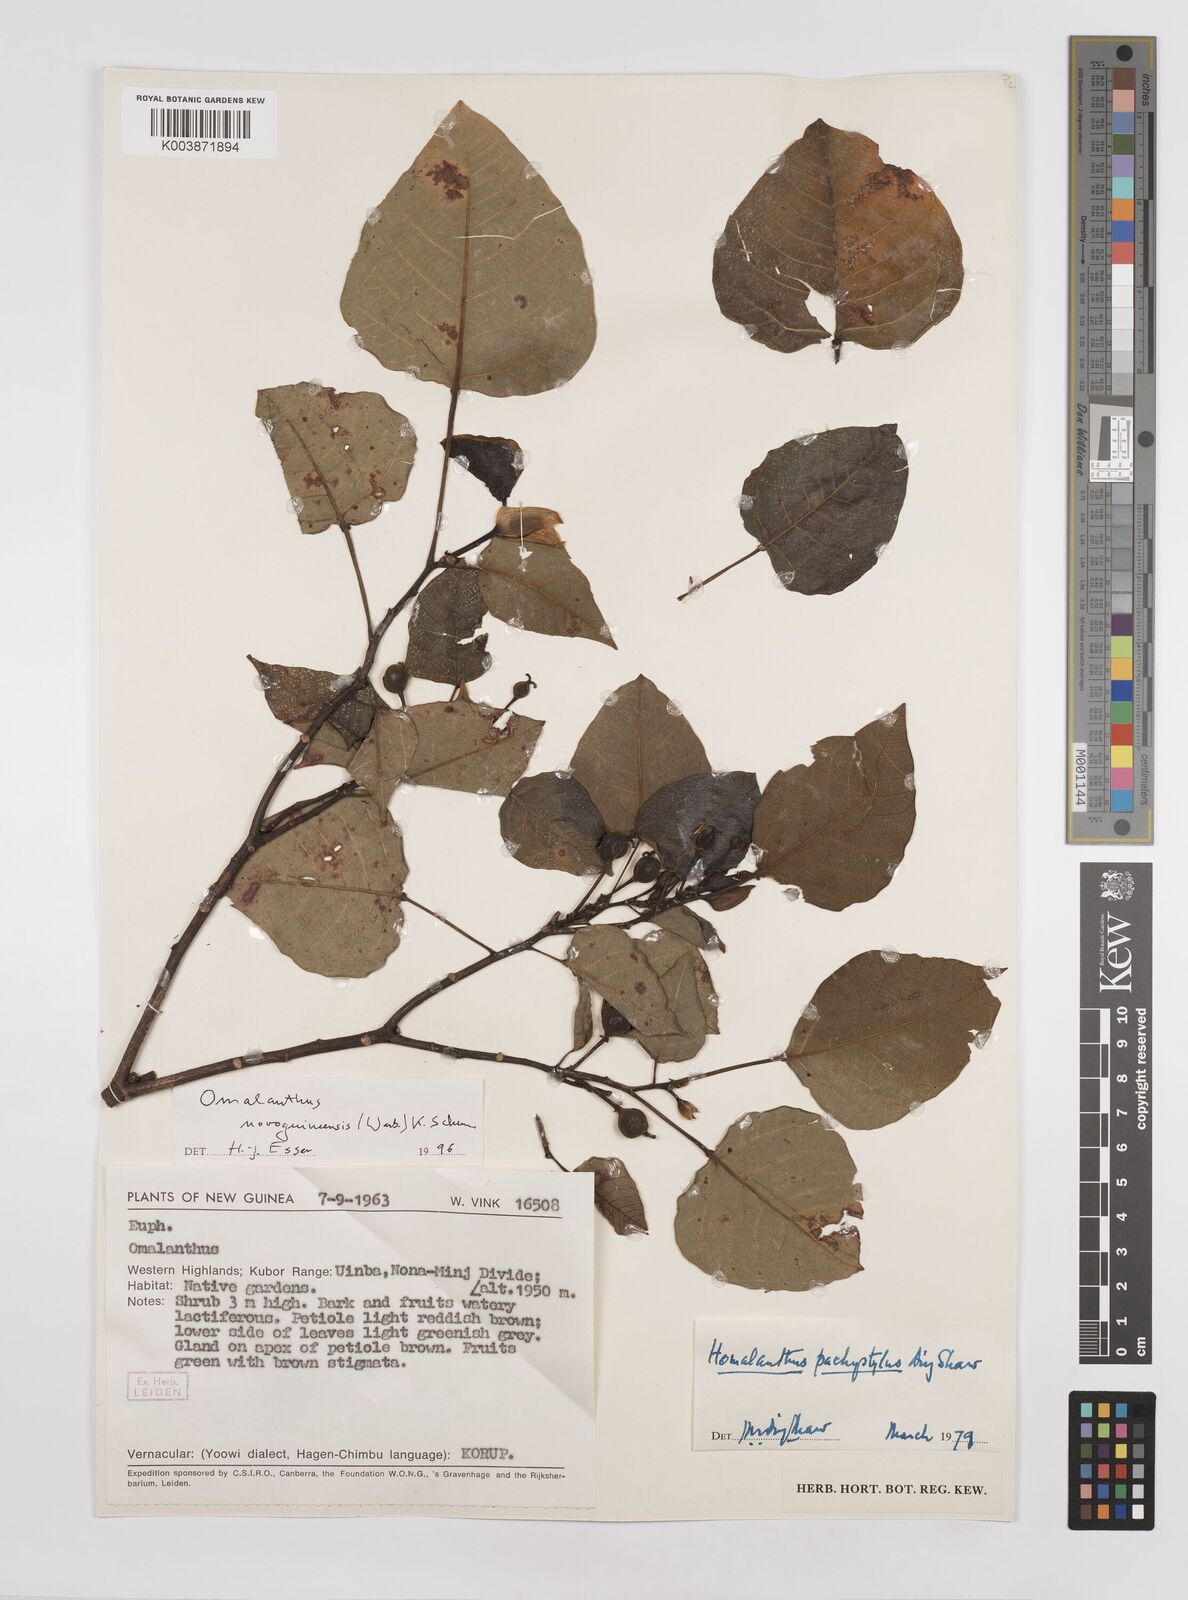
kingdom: Plantae
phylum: Tracheophyta
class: Magnoliopsida
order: Malpighiales
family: Euphorbiaceae
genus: Homalanthus
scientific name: Homalanthus novoguineensis
